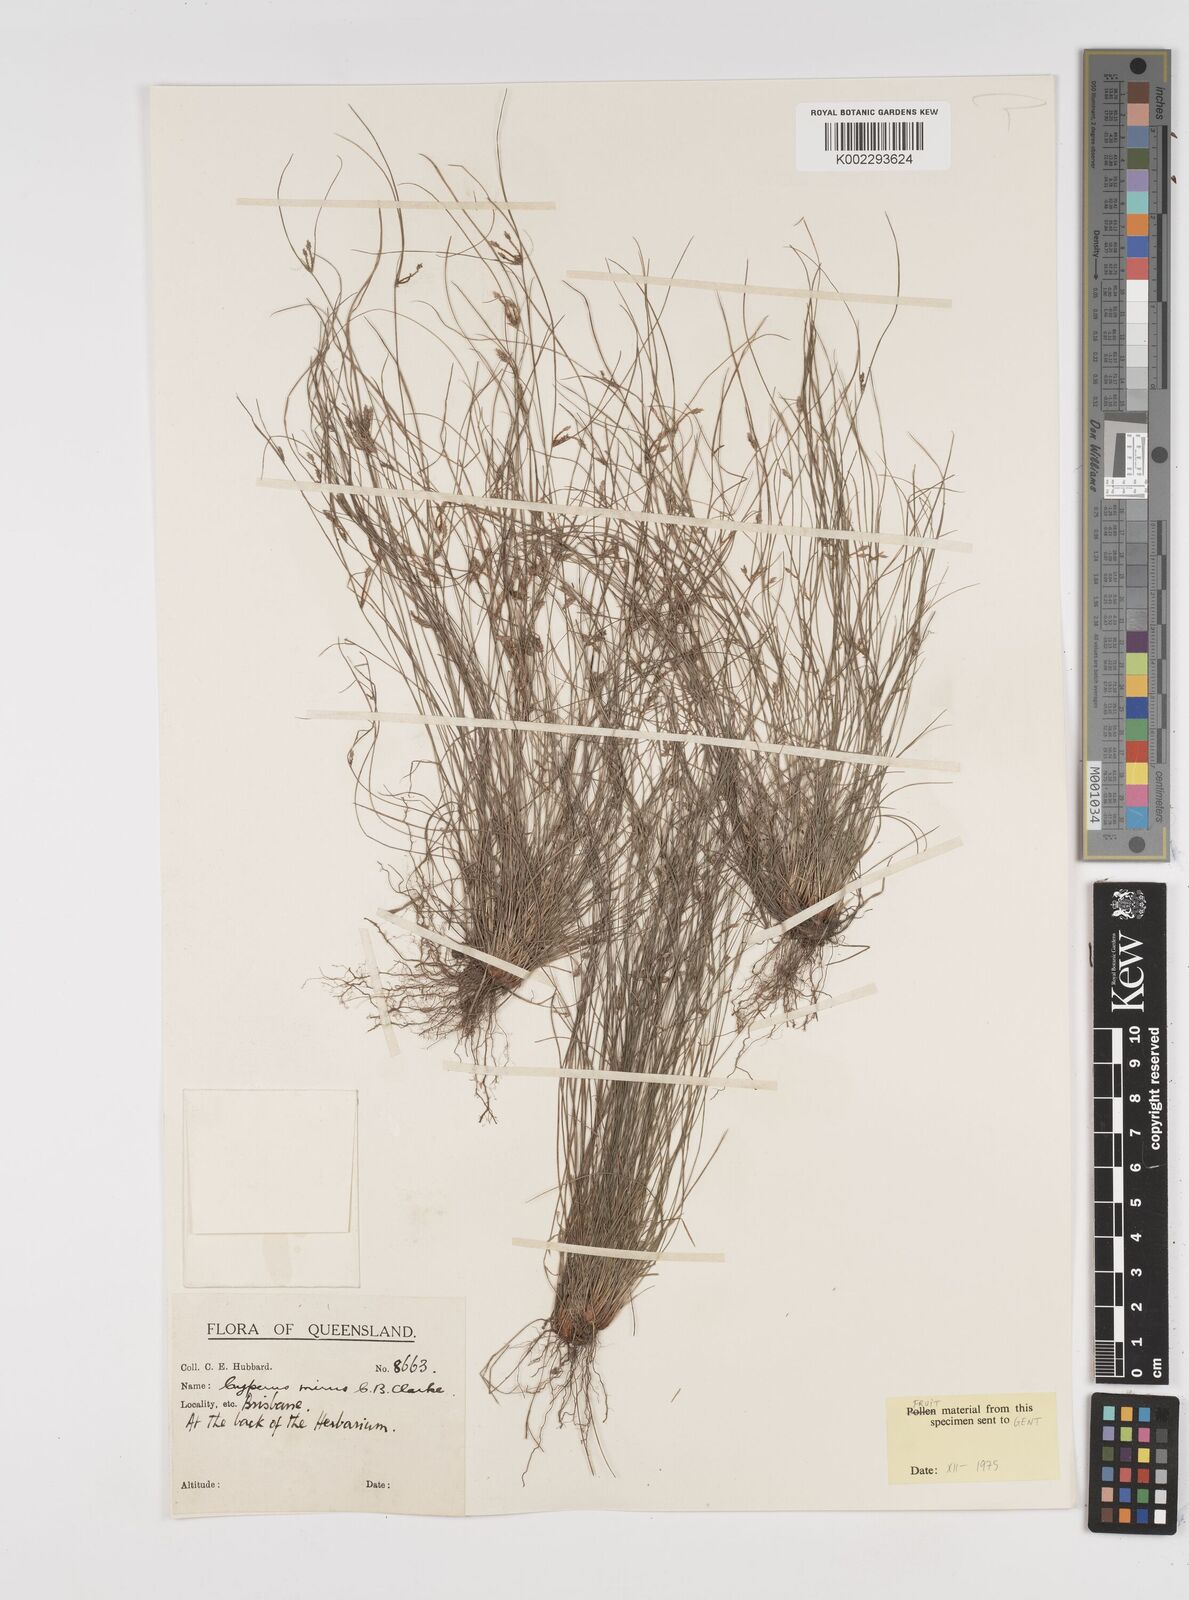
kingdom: Plantae
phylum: Tracheophyta
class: Liliopsida
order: Poales
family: Cyperaceae
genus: Cyperus
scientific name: Cyperus mirus
